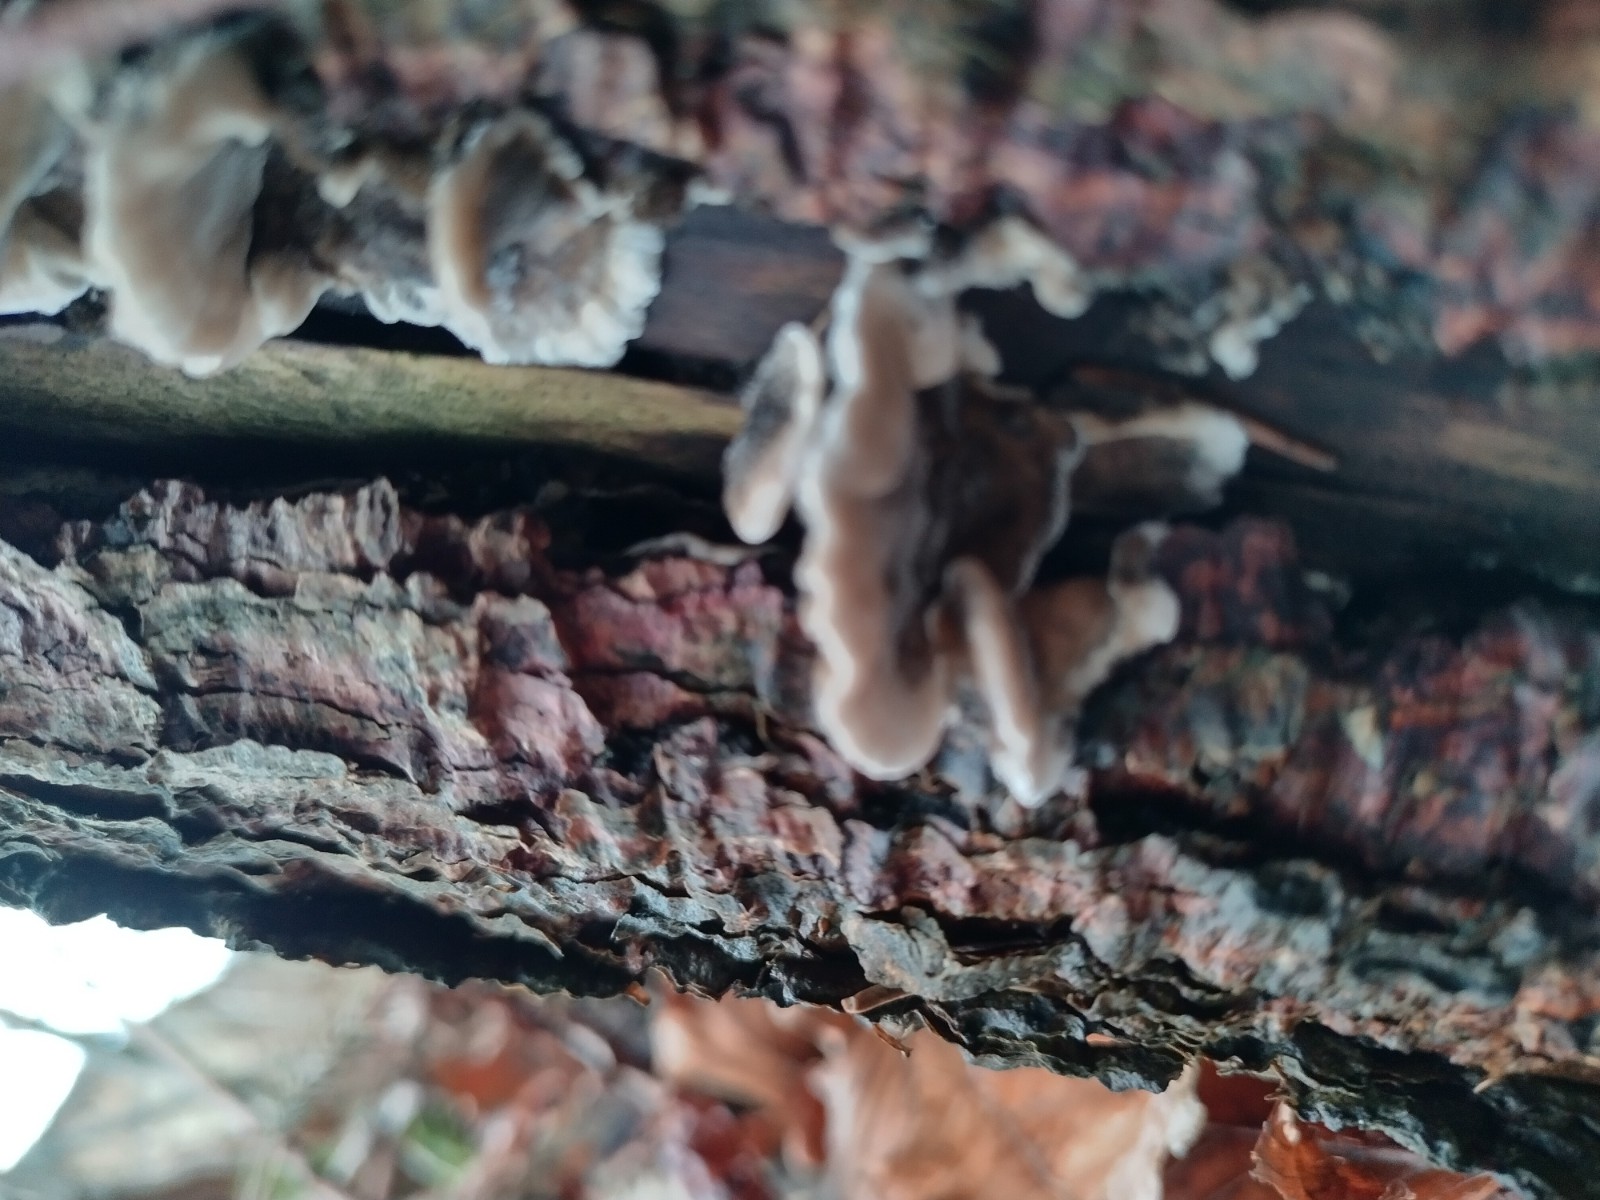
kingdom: Fungi
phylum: Basidiomycota
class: Agaricomycetes
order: Polyporales
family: Phanerochaetaceae
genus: Bjerkandera
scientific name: Bjerkandera adusta
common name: sveden sodporesvamp
